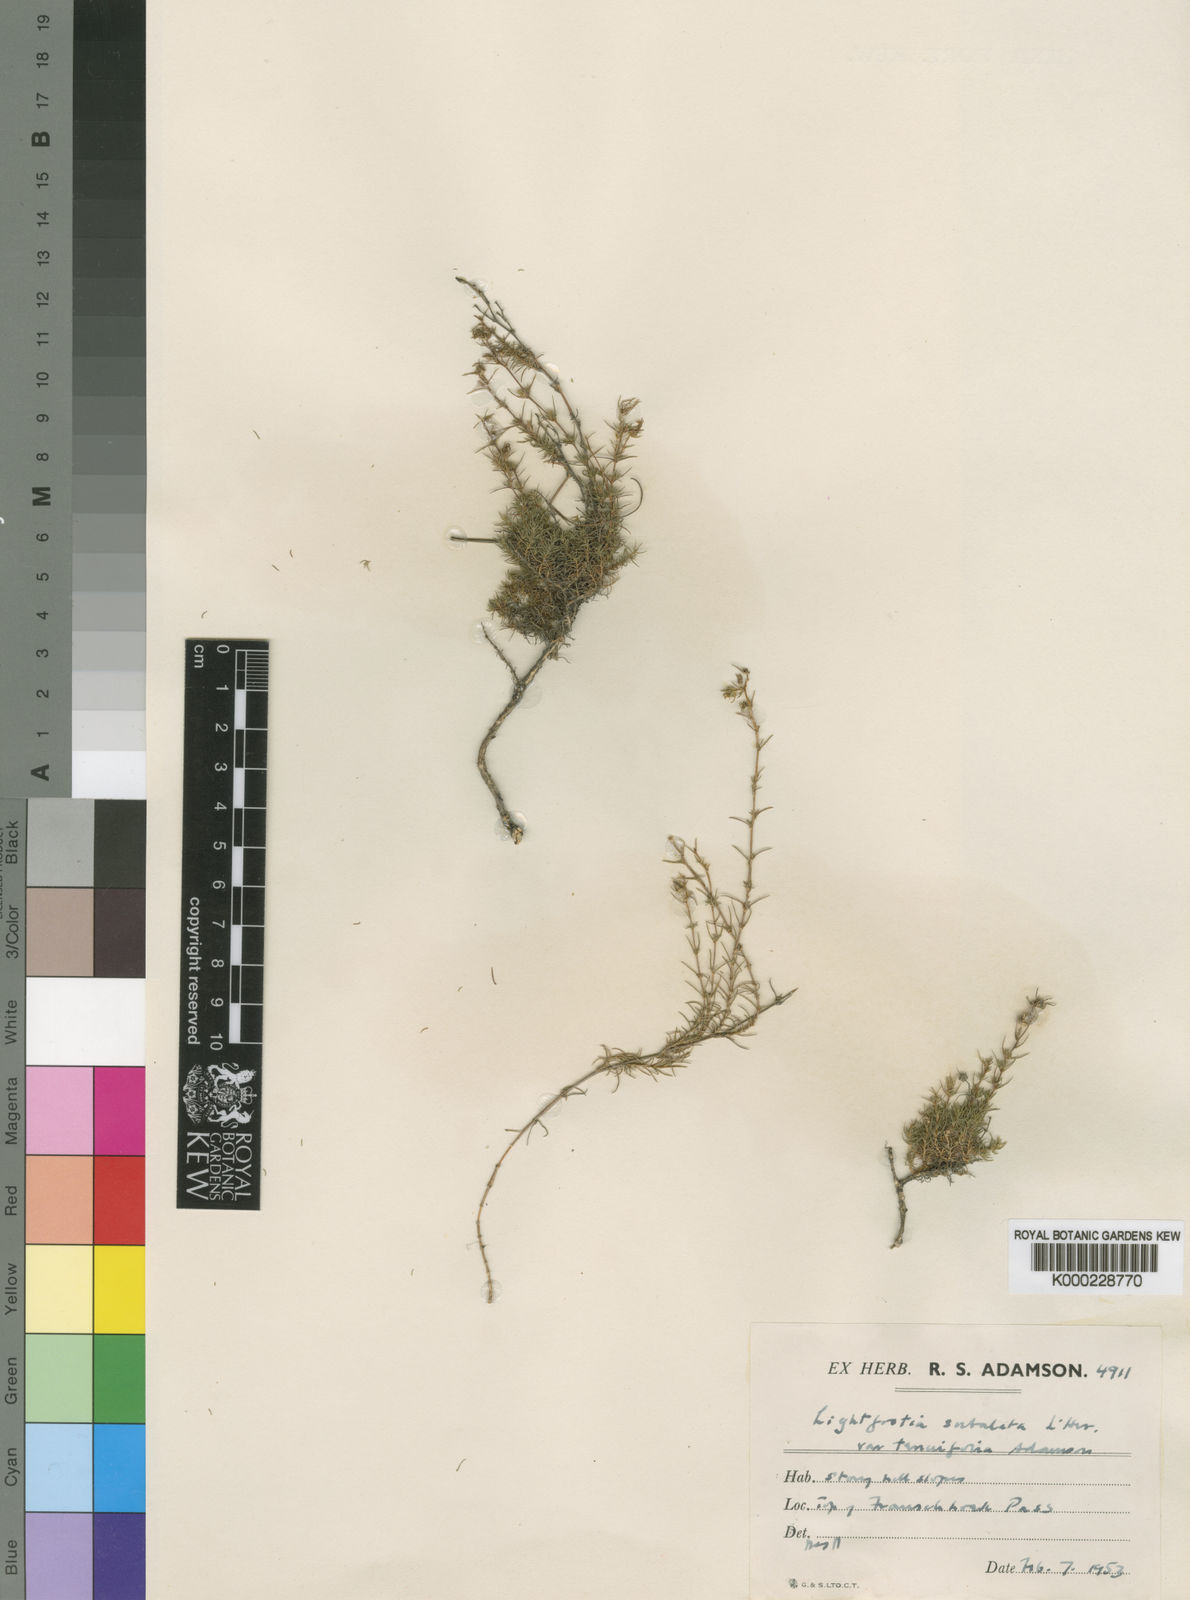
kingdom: Plantae
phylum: Tracheophyta
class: Magnoliopsida
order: Malvales
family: Bixaceae
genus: Lightfootia
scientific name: Lightfootia
